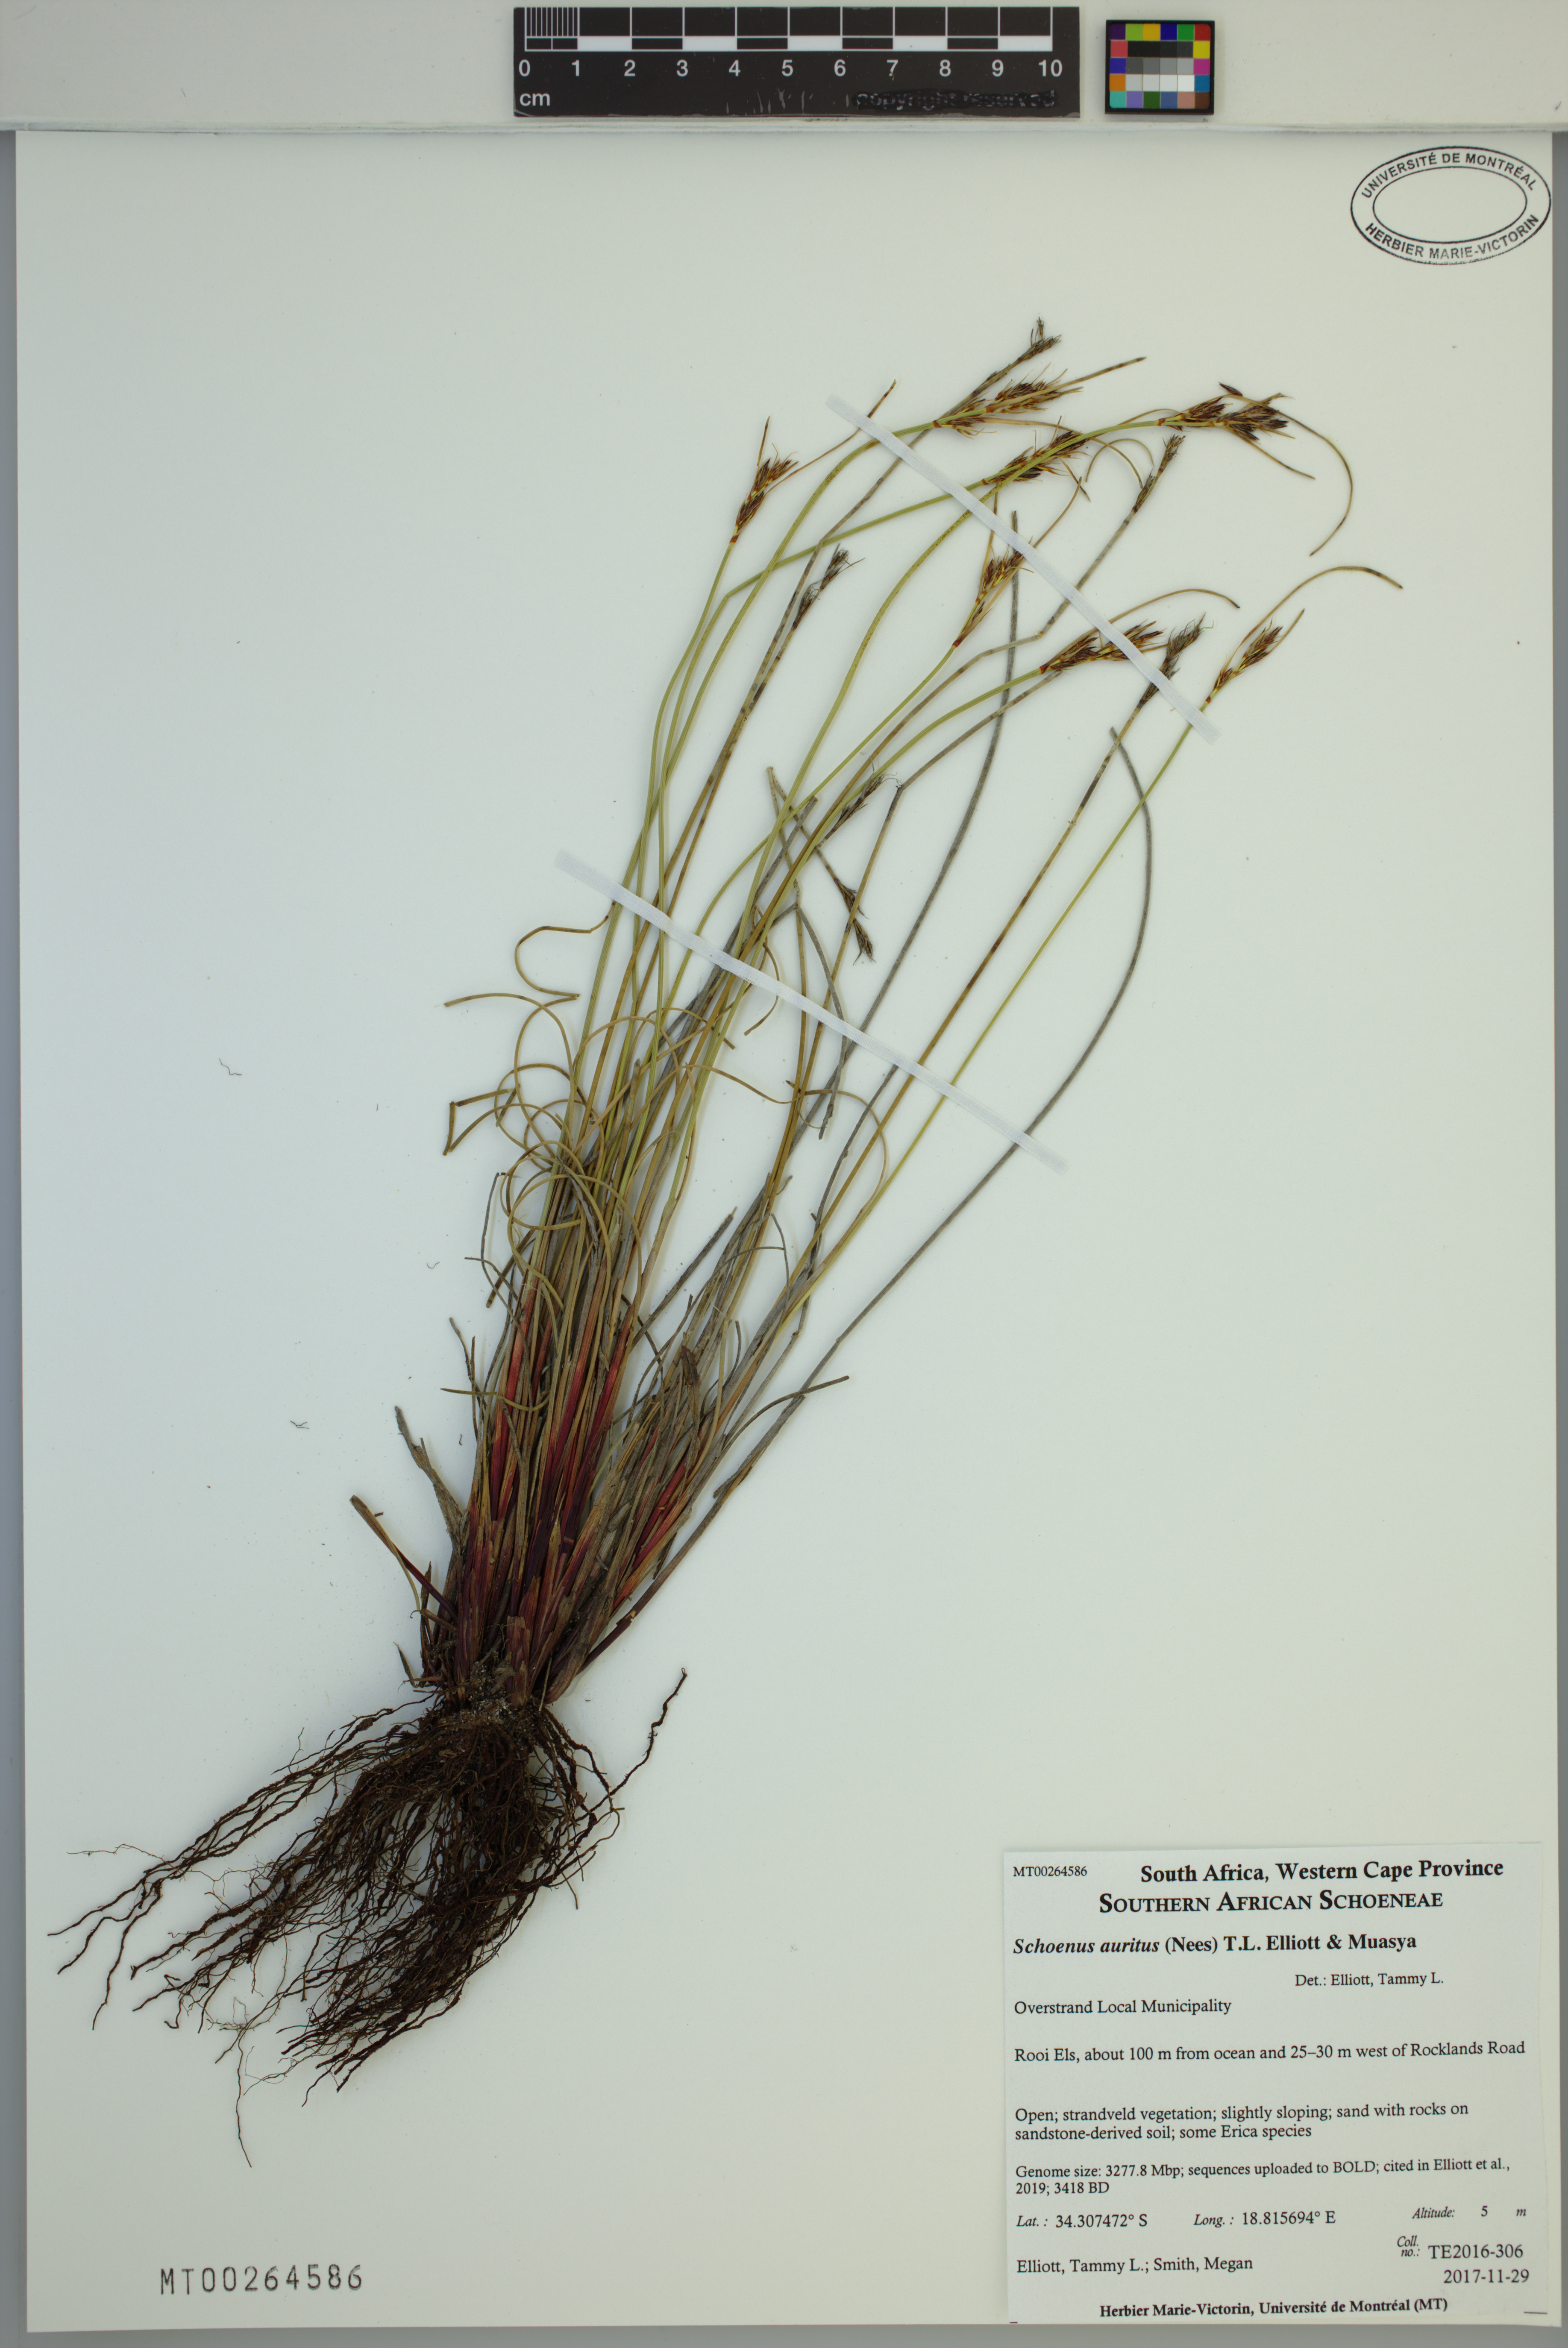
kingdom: Plantae
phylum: Tracheophyta
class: Liliopsida
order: Poales
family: Cyperaceae
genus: Schoenus
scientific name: Schoenus auritus
